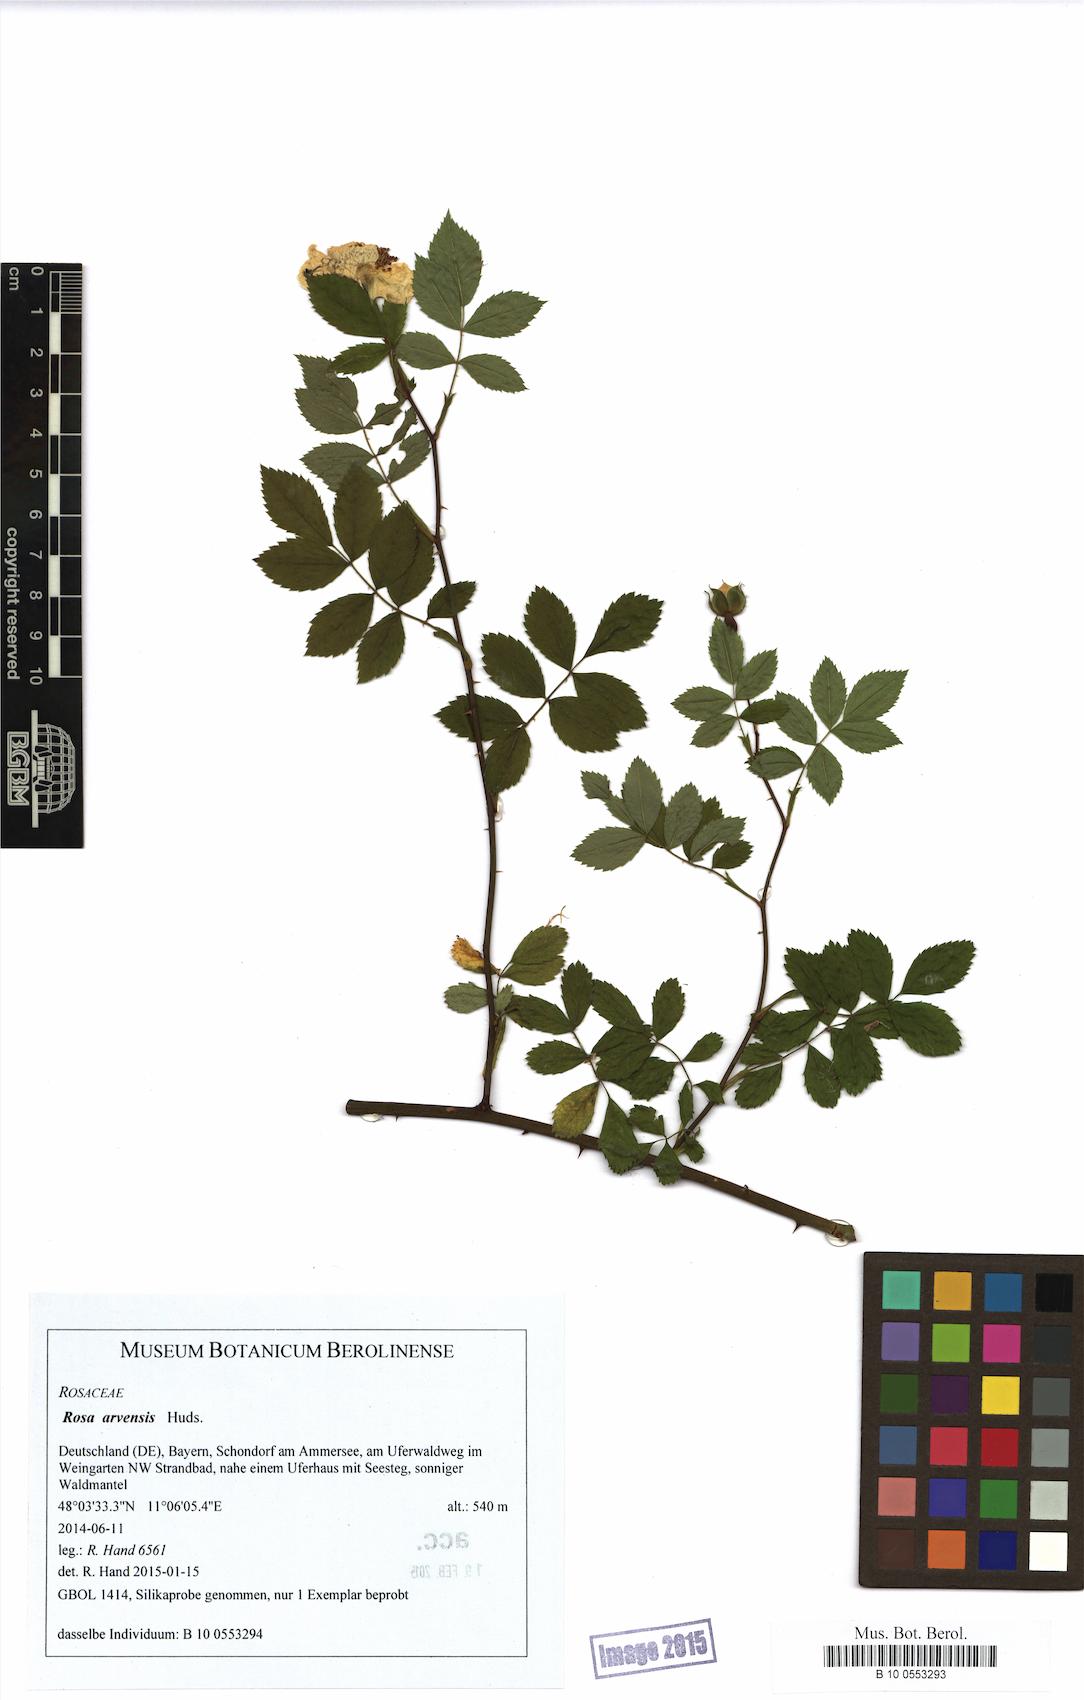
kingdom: Plantae
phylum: Tracheophyta
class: Magnoliopsida
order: Rosales
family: Rosaceae
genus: Rosa
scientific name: Rosa arvensis
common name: Field rose
